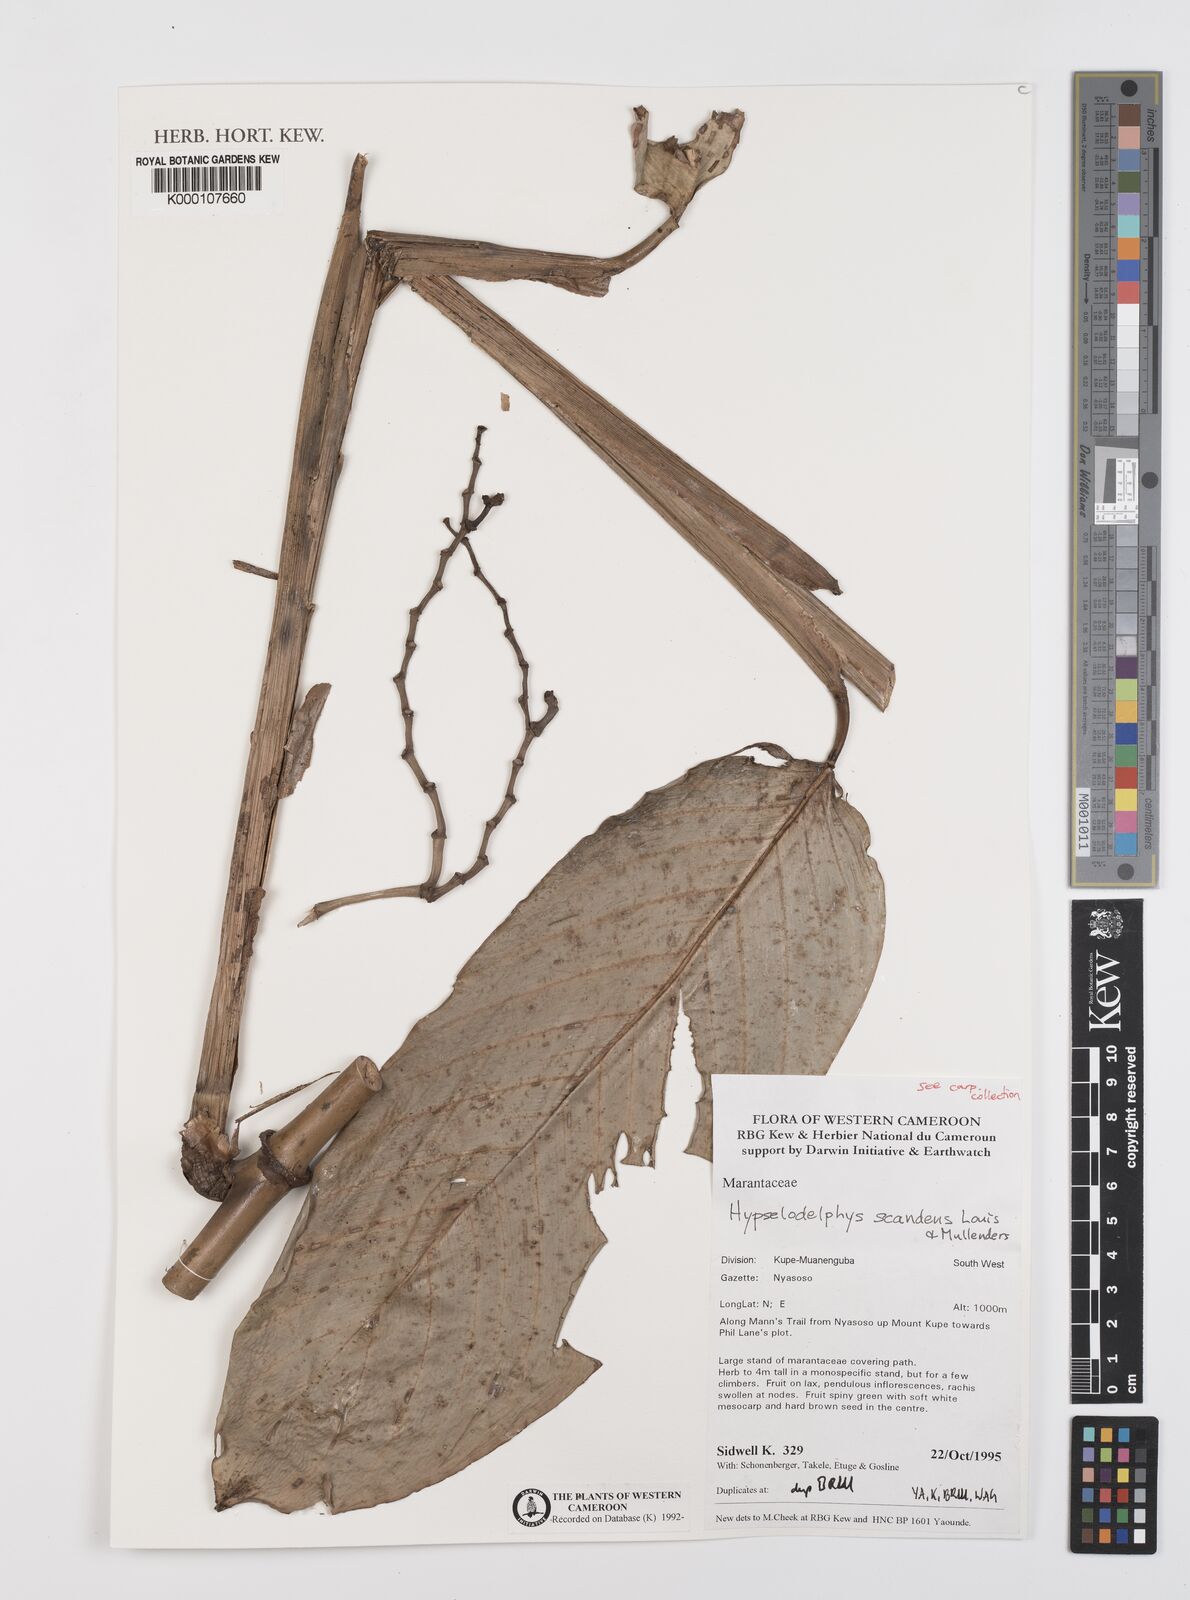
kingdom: Plantae
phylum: Tracheophyta
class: Liliopsida
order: Zingiberales
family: Marantaceae
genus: Hypselodelphys
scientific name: Hypselodelphys scandens
